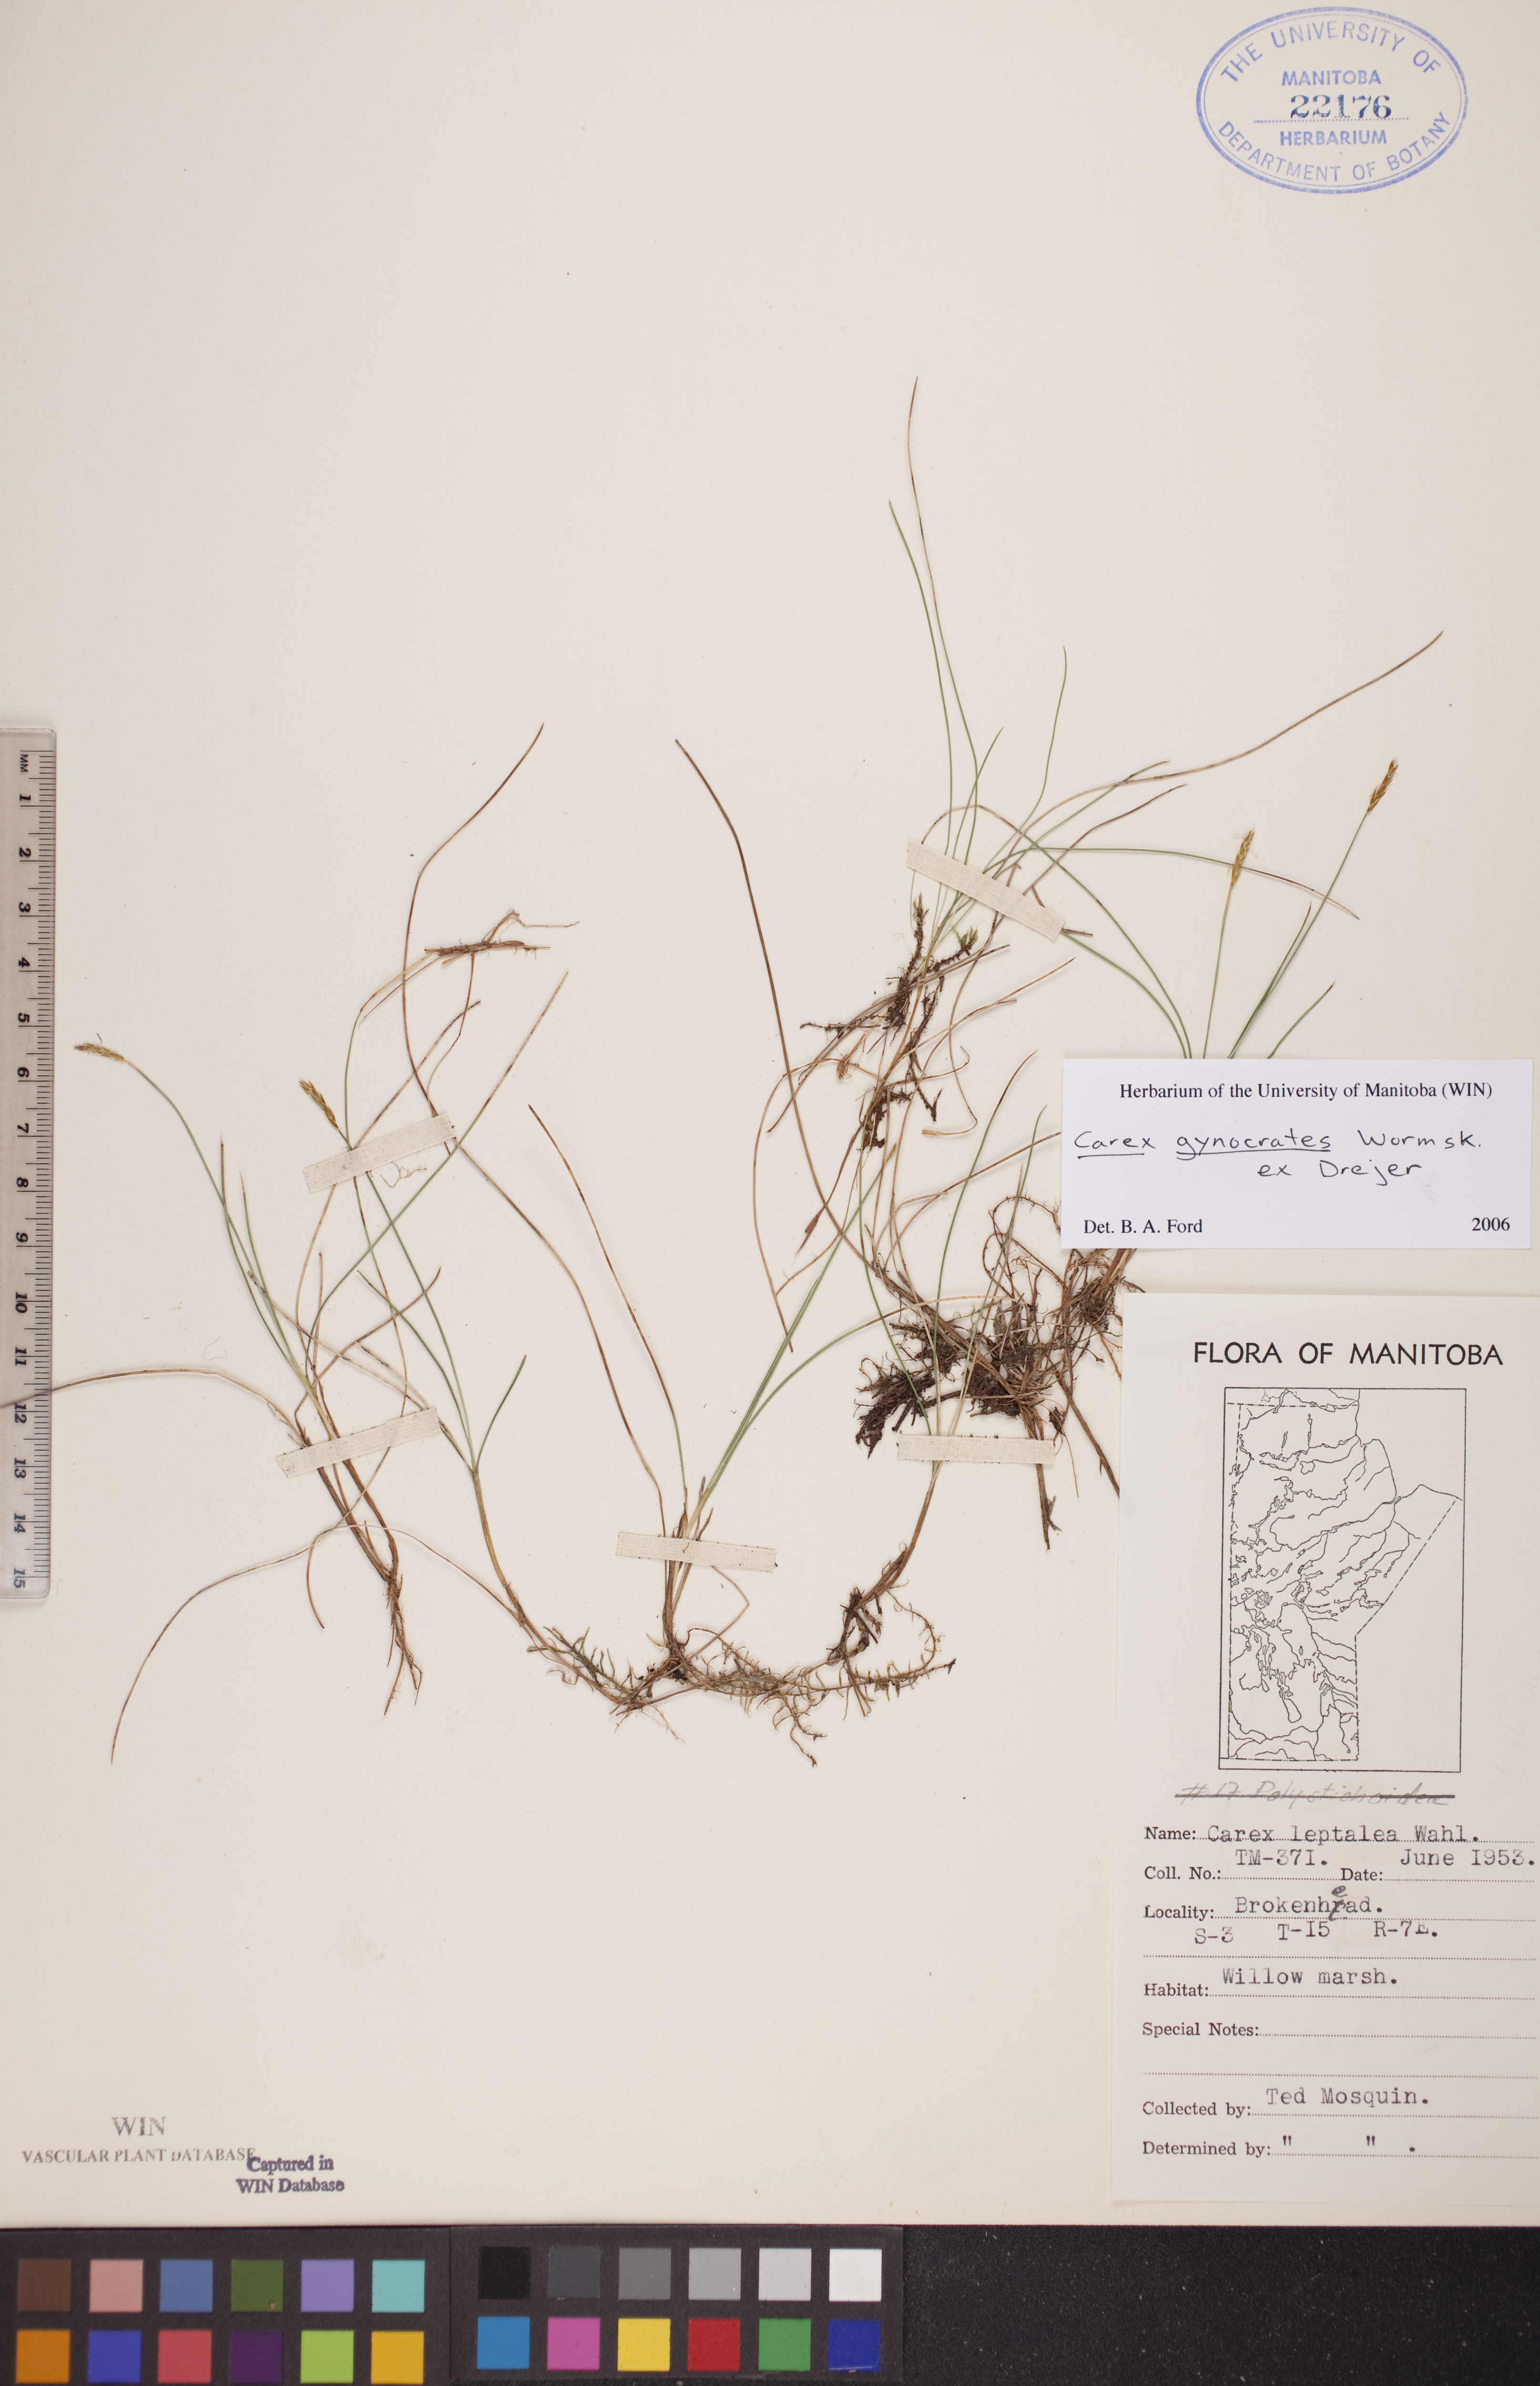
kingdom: Plantae
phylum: Tracheophyta
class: Liliopsida
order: Poales
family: Cyperaceae
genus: Carex
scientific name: Carex nardina
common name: Nard sedge
